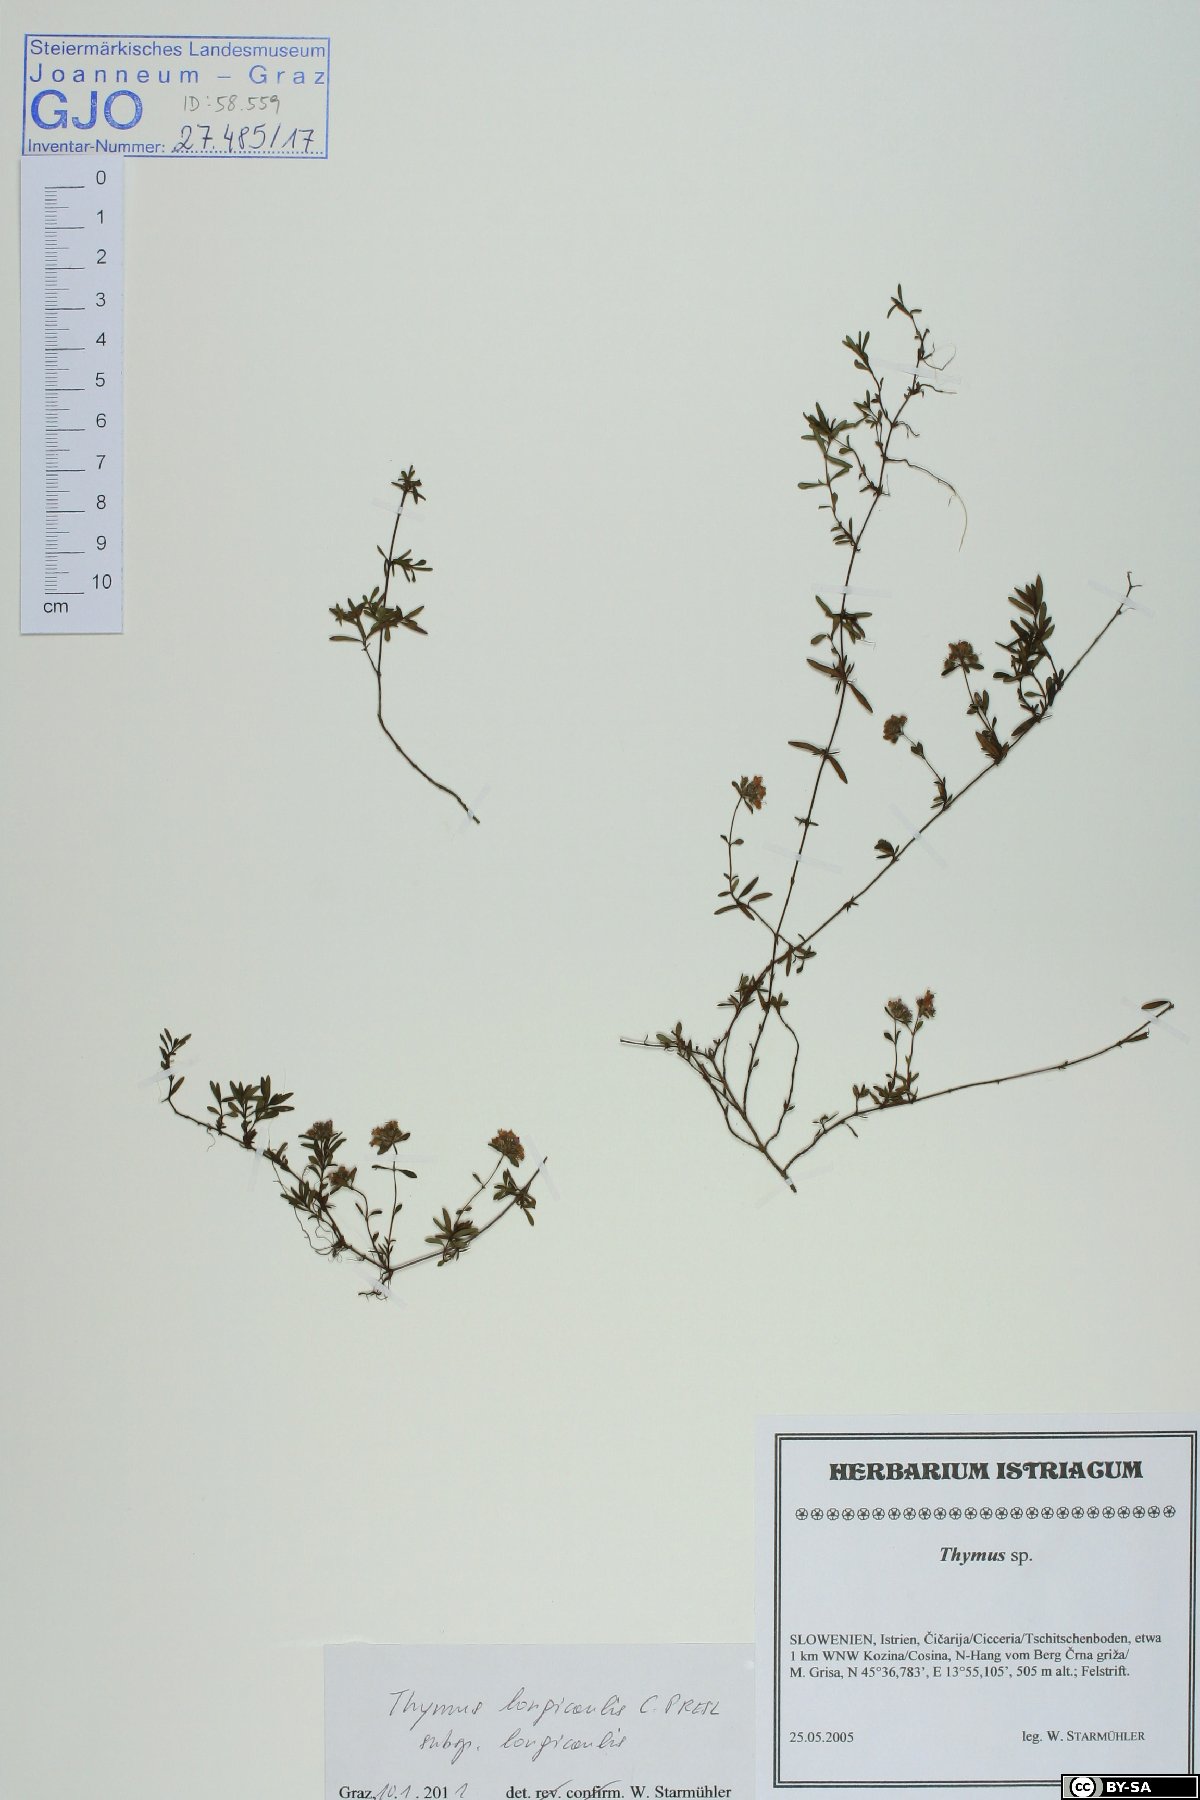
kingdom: Plantae
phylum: Tracheophyta
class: Magnoliopsida
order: Lamiales
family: Lamiaceae
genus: Thymus
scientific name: Thymus longicaulis
